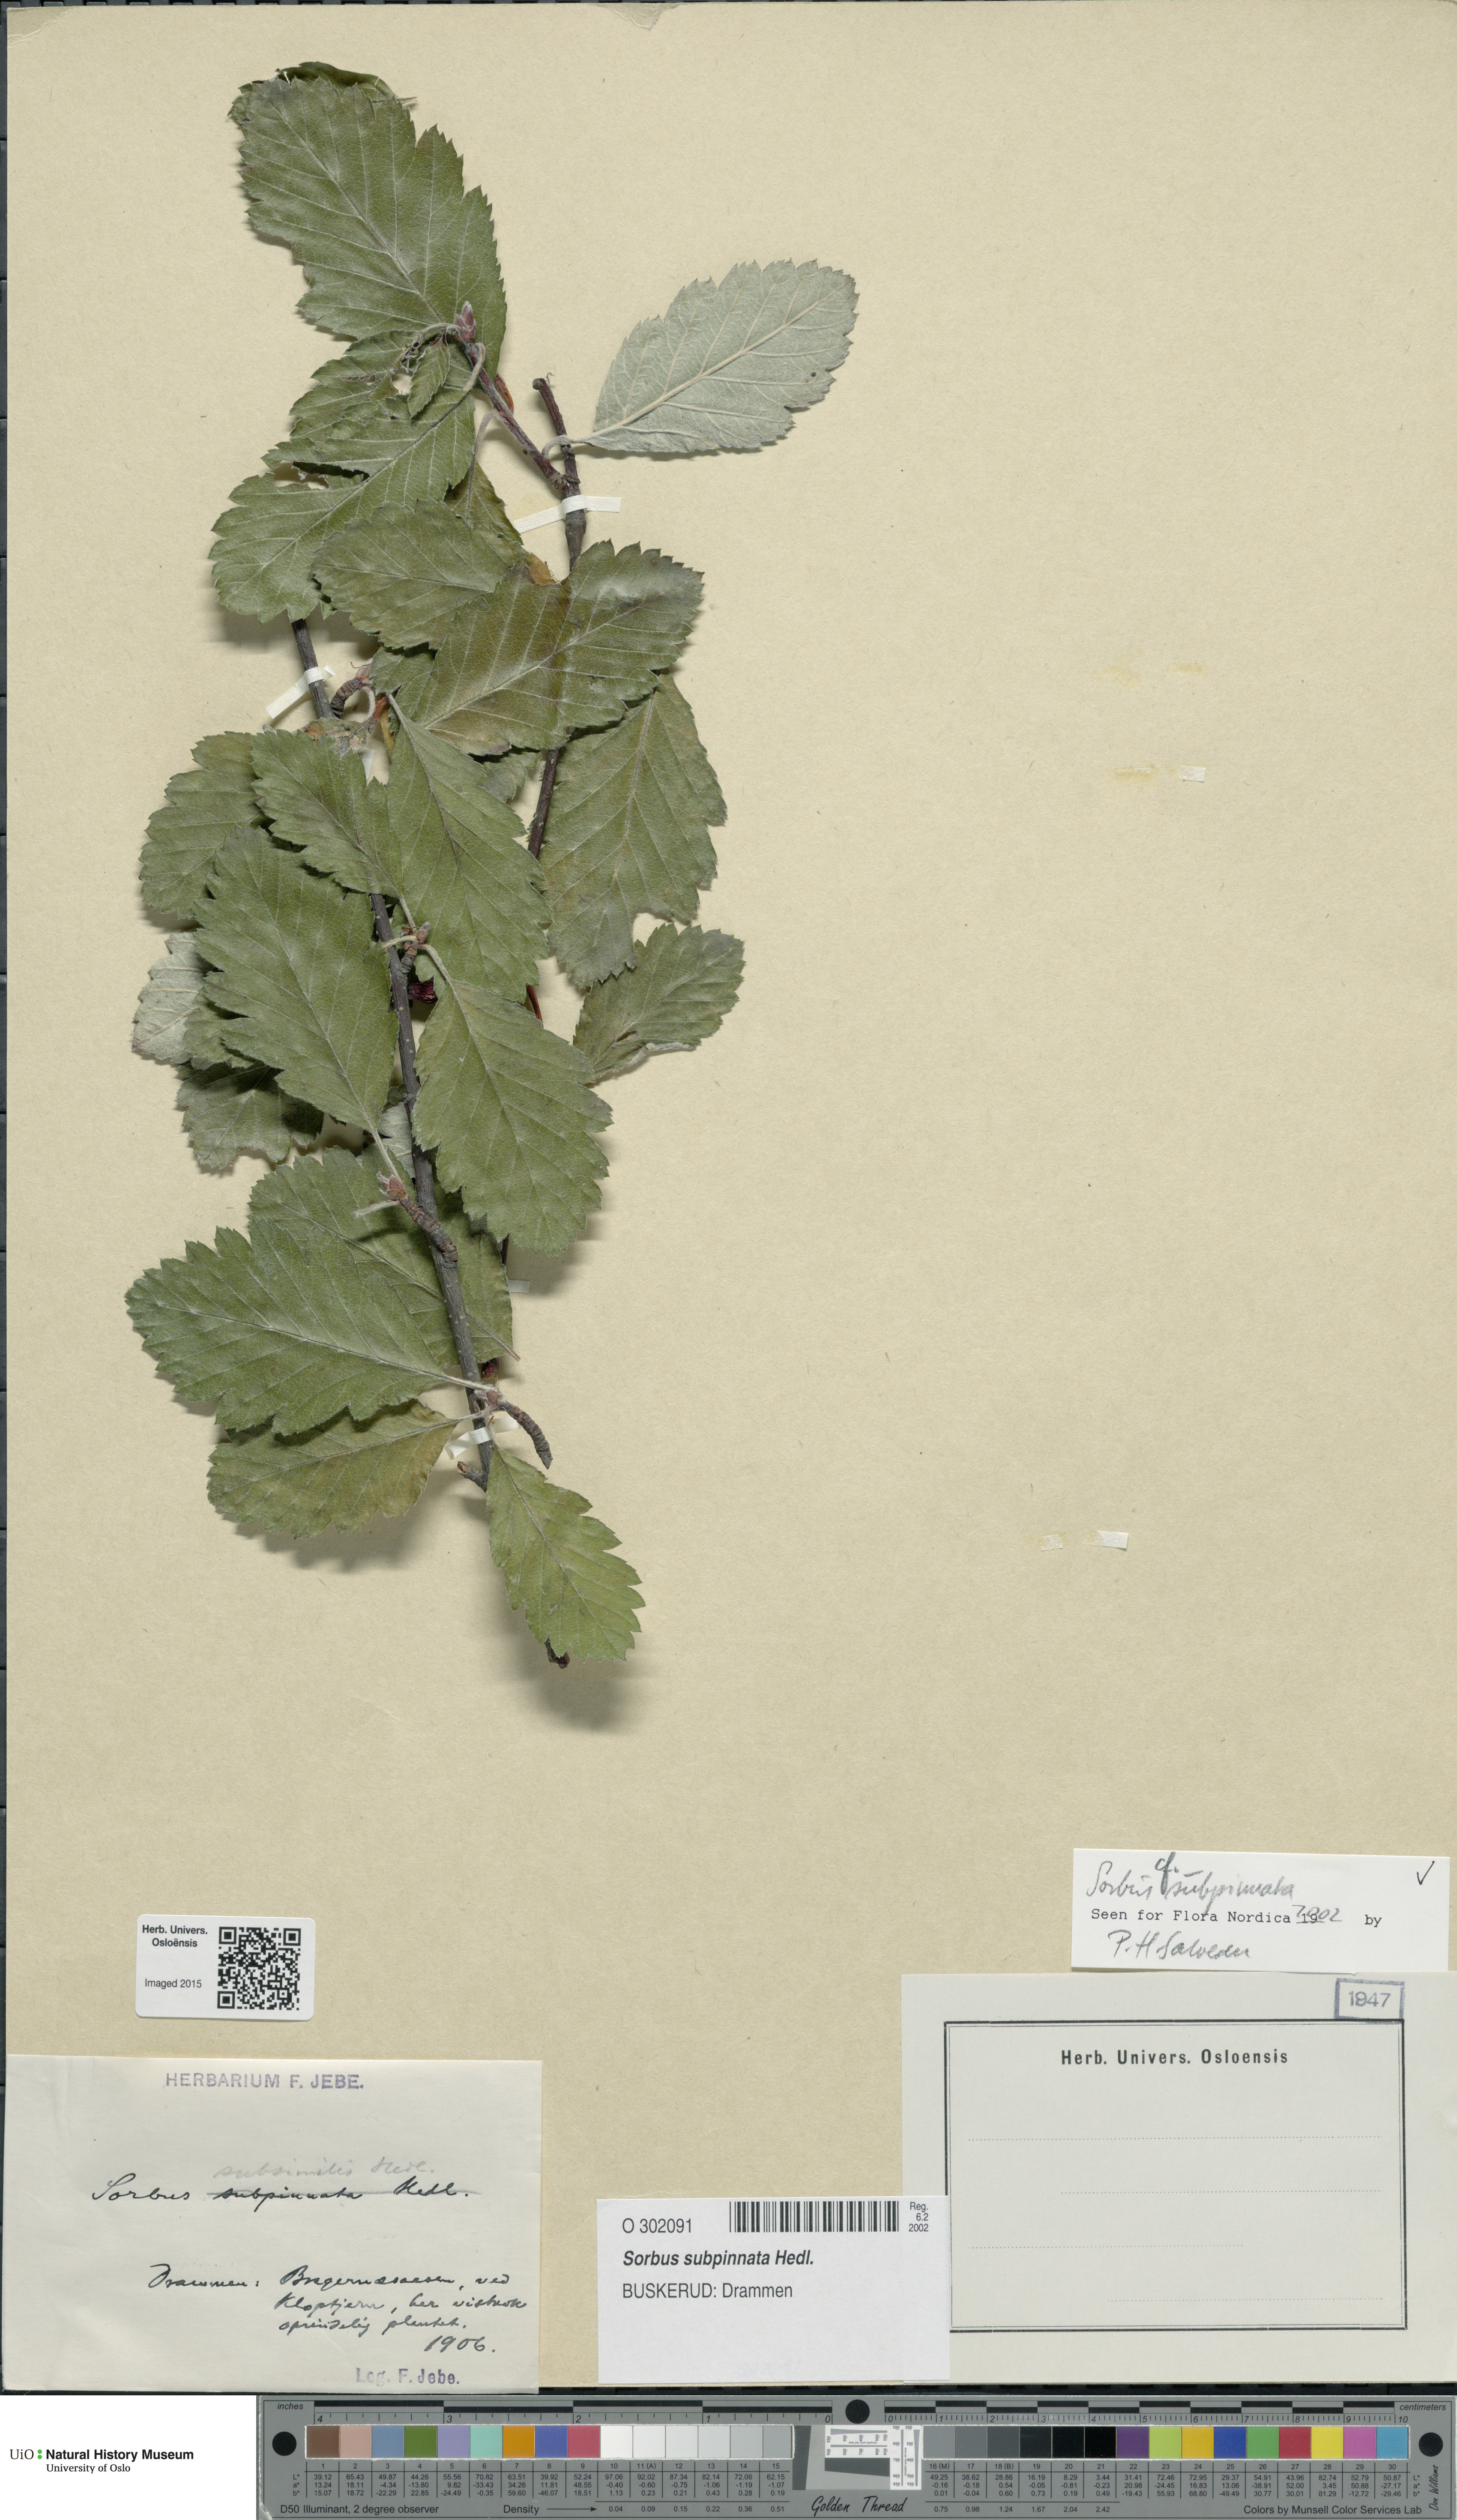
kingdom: Plantae
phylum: Tracheophyta
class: Magnoliopsida
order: Rosales
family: Rosaceae
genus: Hedlundia
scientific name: Hedlundia subpinnata
